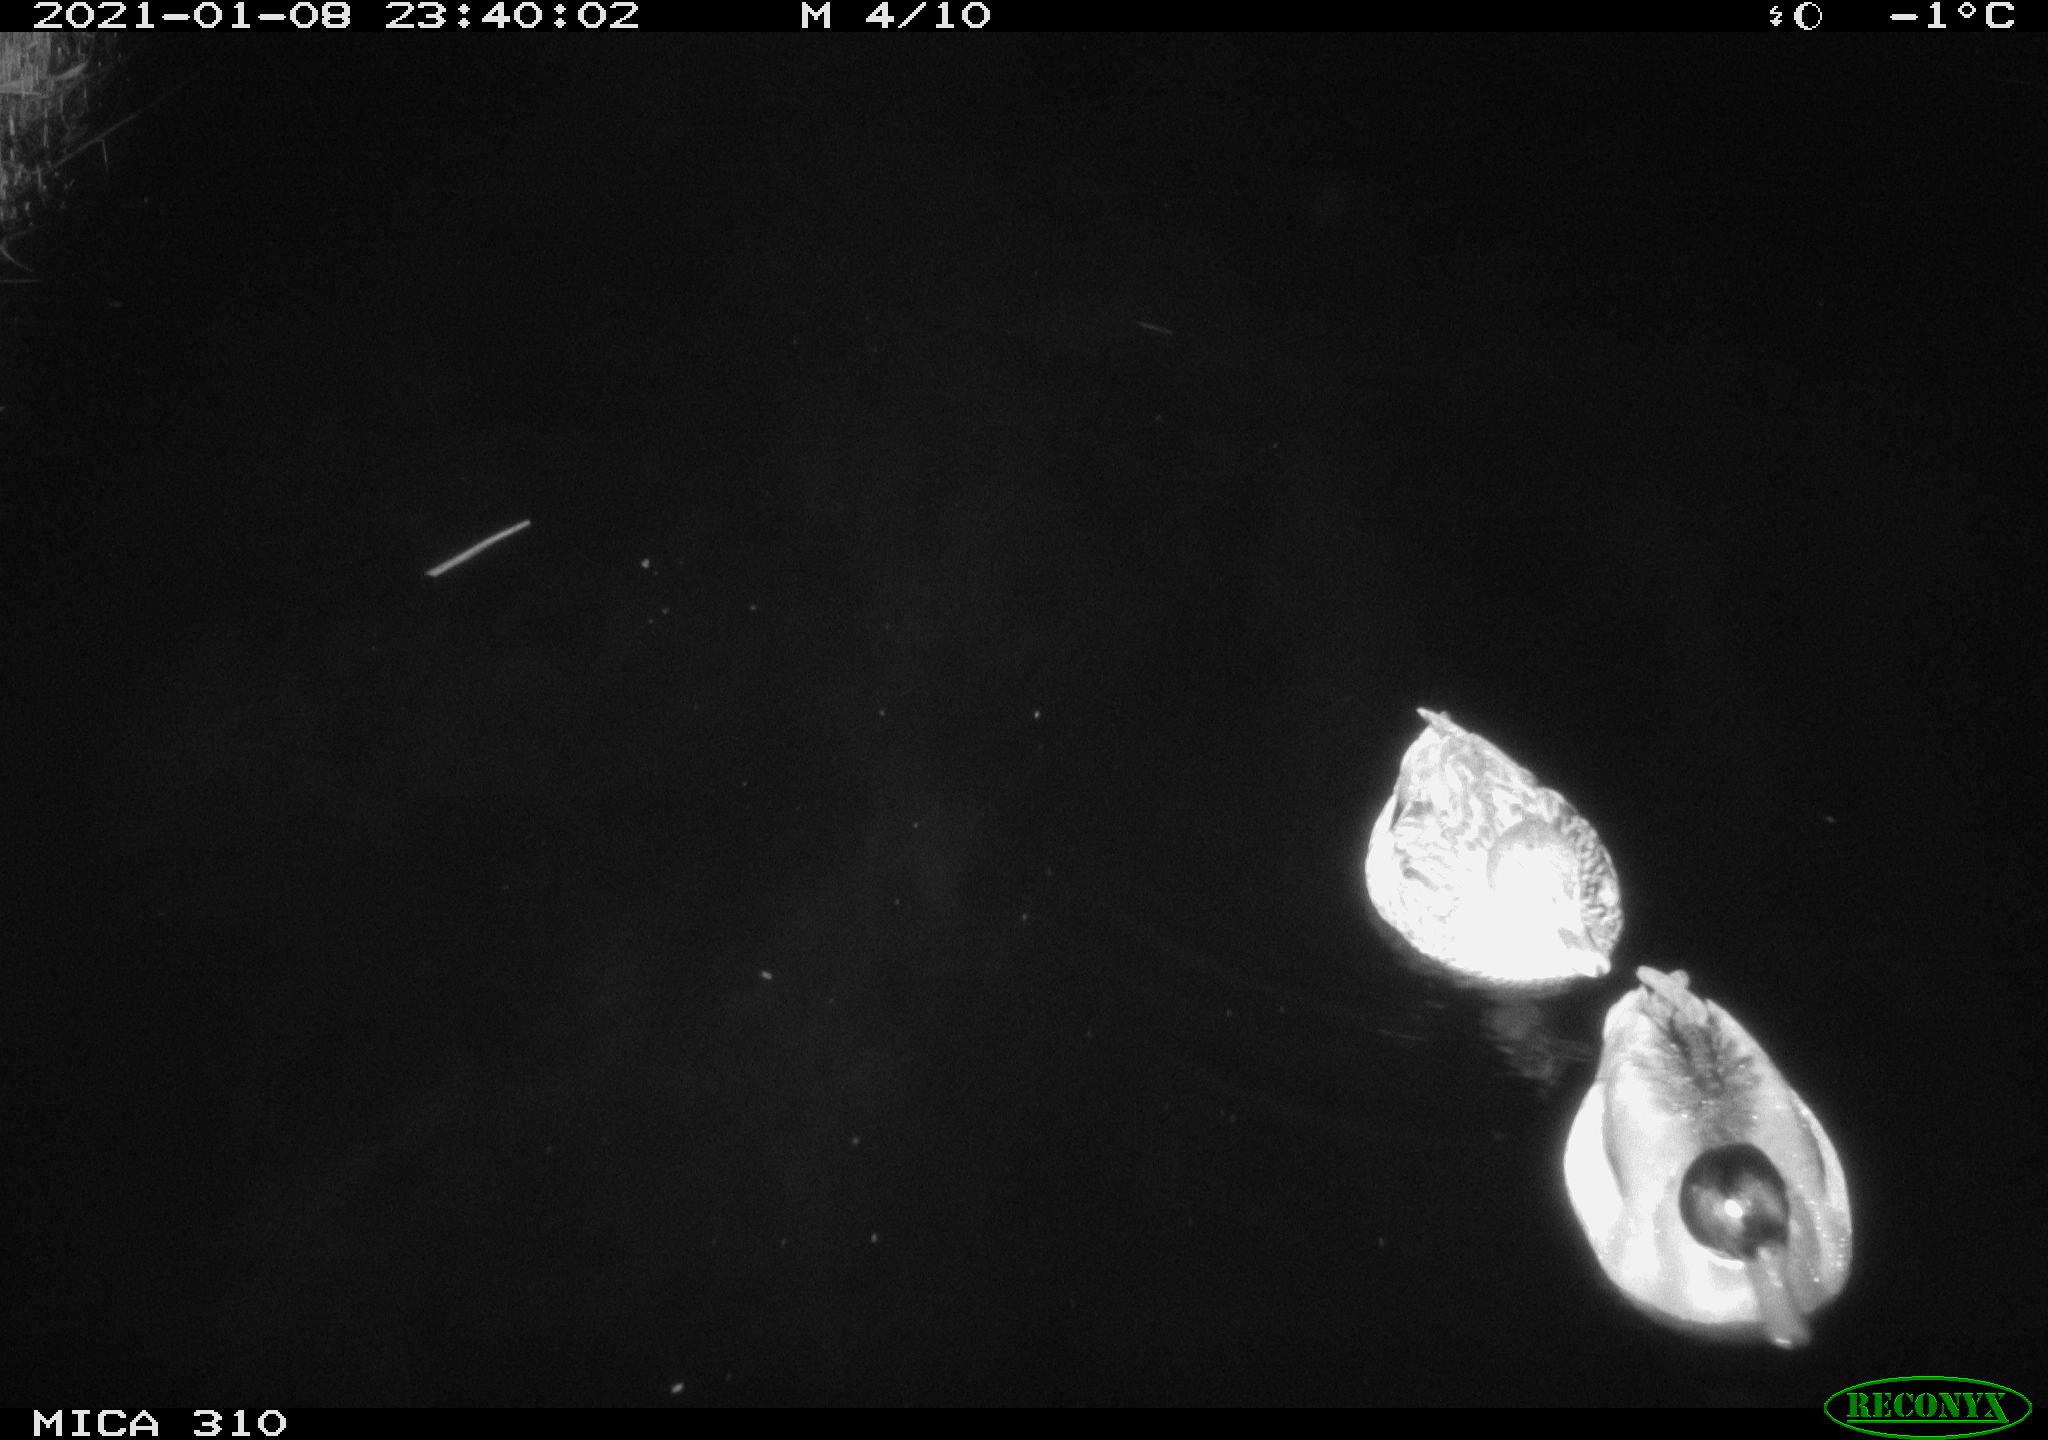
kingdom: Animalia
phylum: Chordata
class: Aves
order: Anseriformes
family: Anatidae
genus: Anas
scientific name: Anas platyrhynchos
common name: Mallard
